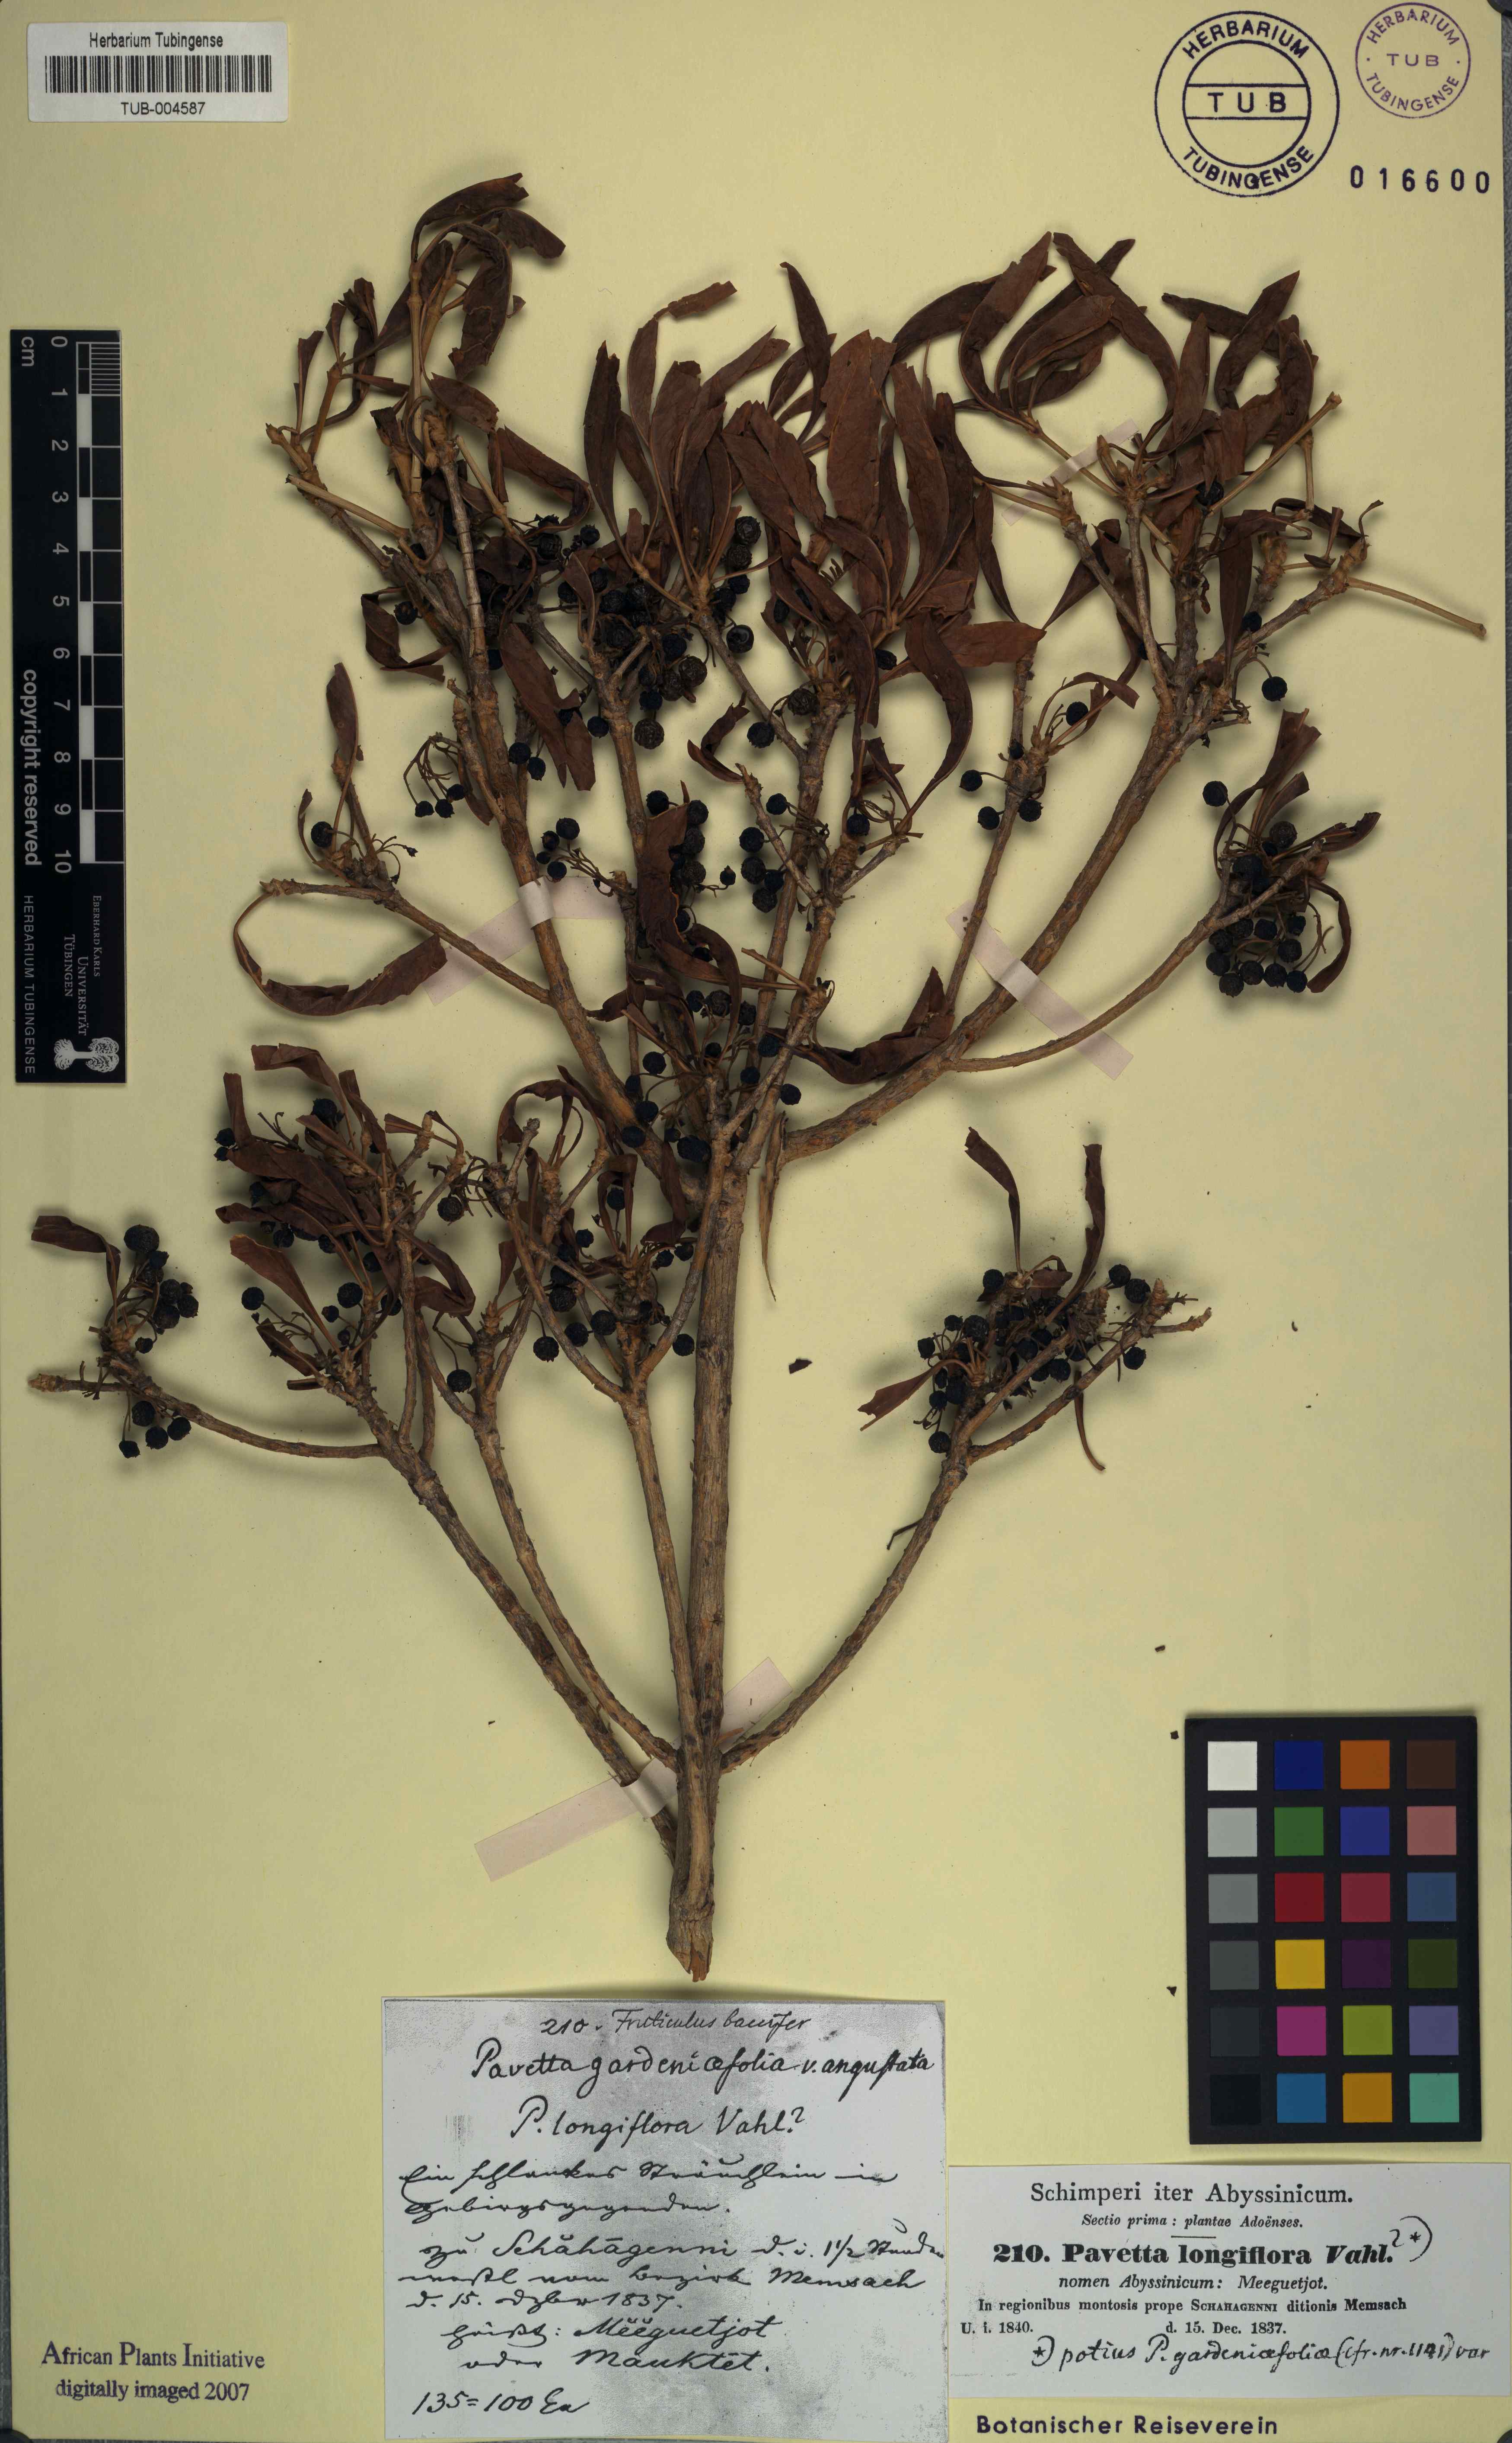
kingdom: Plantae
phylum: Tracheophyta
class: Magnoliopsida
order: Gentianales
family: Rubiaceae
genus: Pavetta
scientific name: Pavetta longiflora
